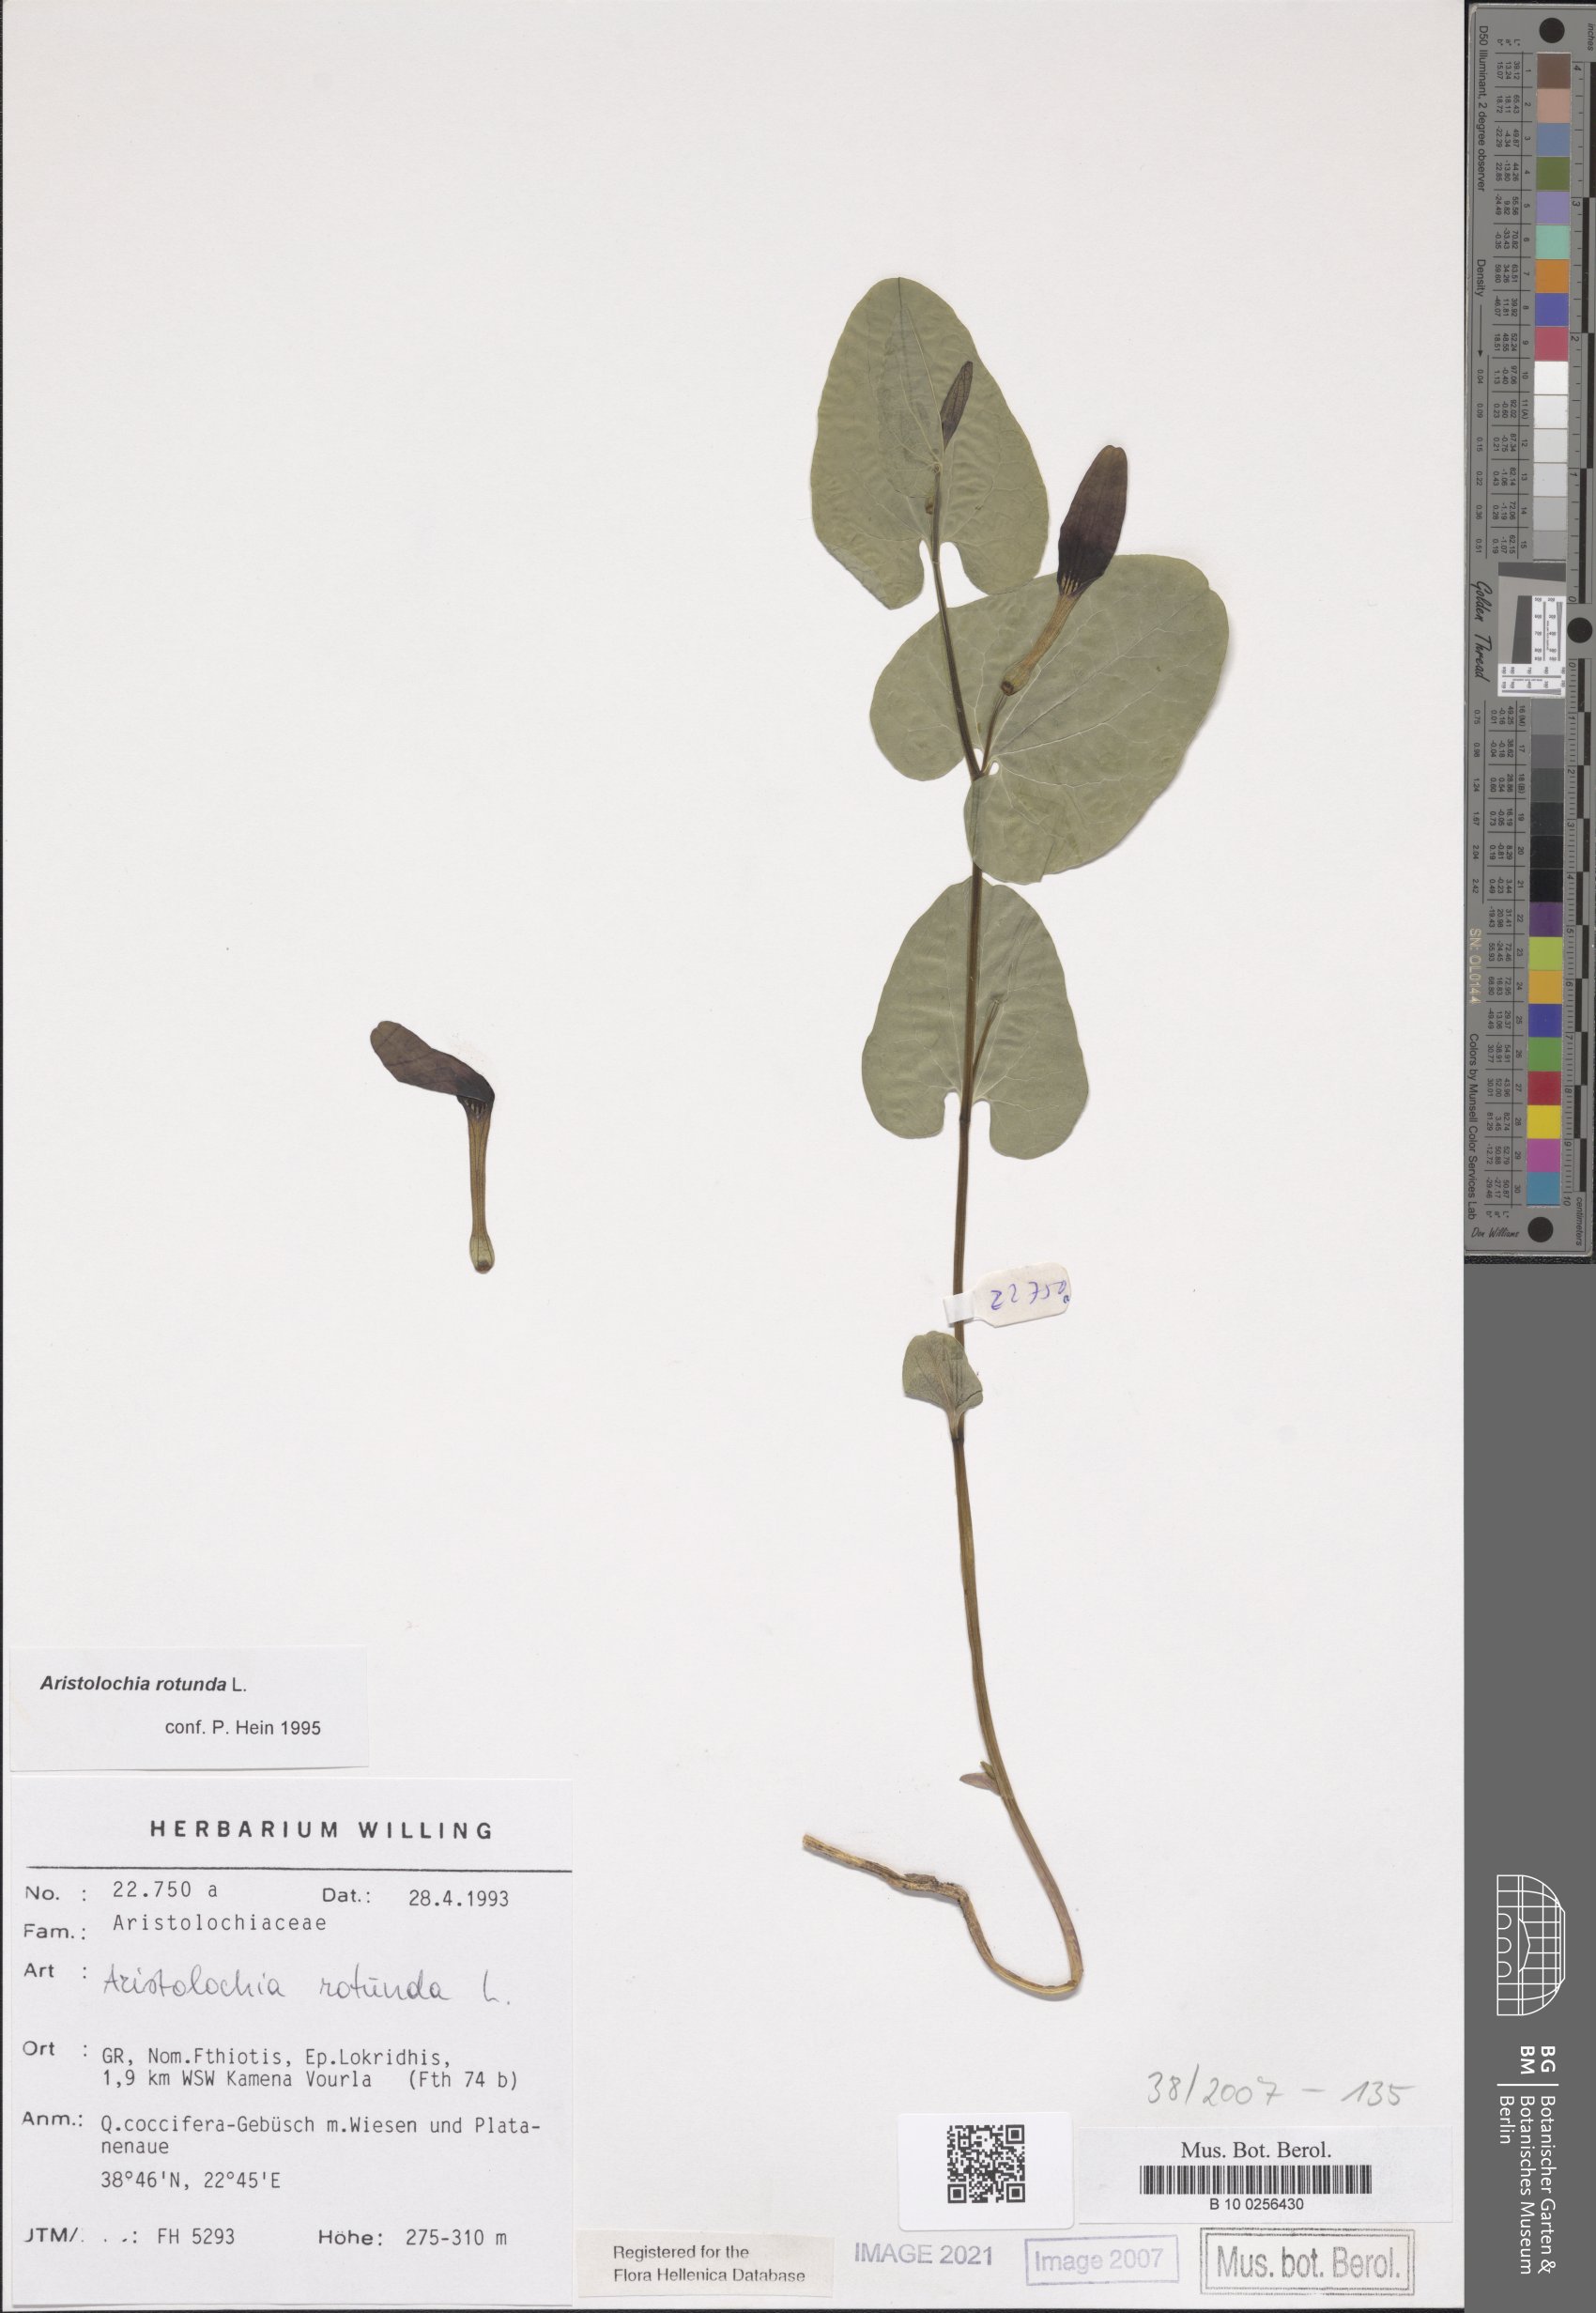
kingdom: Plantae
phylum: Tracheophyta
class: Magnoliopsida
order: Piperales
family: Aristolochiaceae
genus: Aristolochia
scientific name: Aristolochia rotunda
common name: Smearwort
